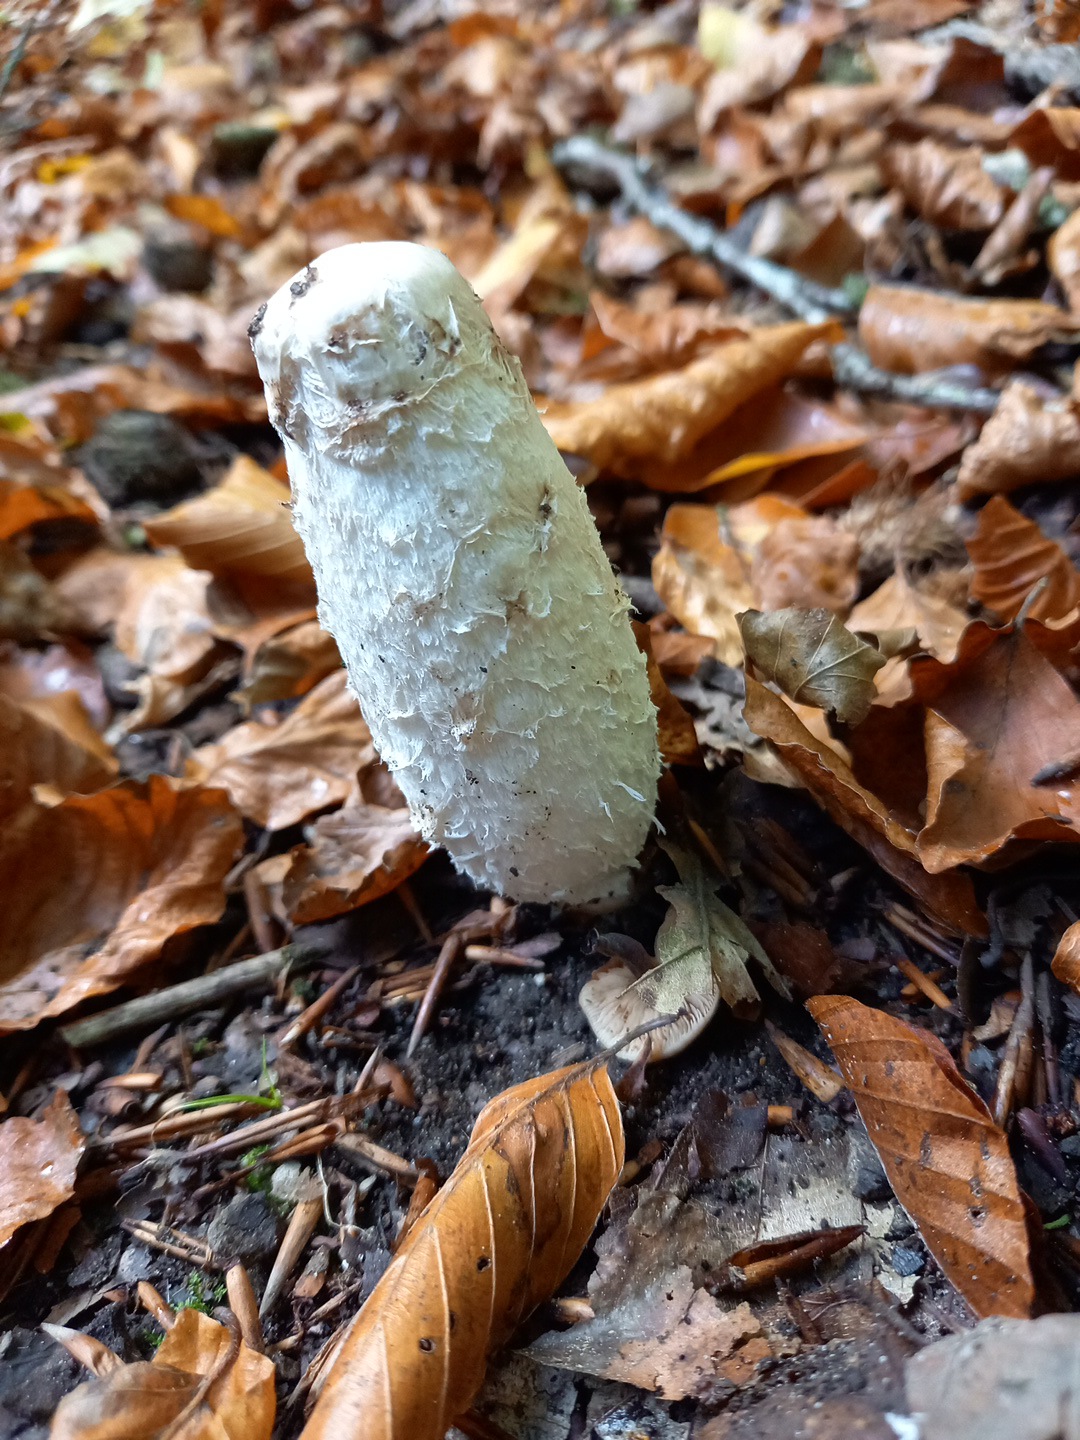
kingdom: Fungi
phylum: Basidiomycota
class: Agaricomycetes
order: Agaricales
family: Agaricaceae
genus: Coprinus
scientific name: Coprinus comatus
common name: stor parykhat
